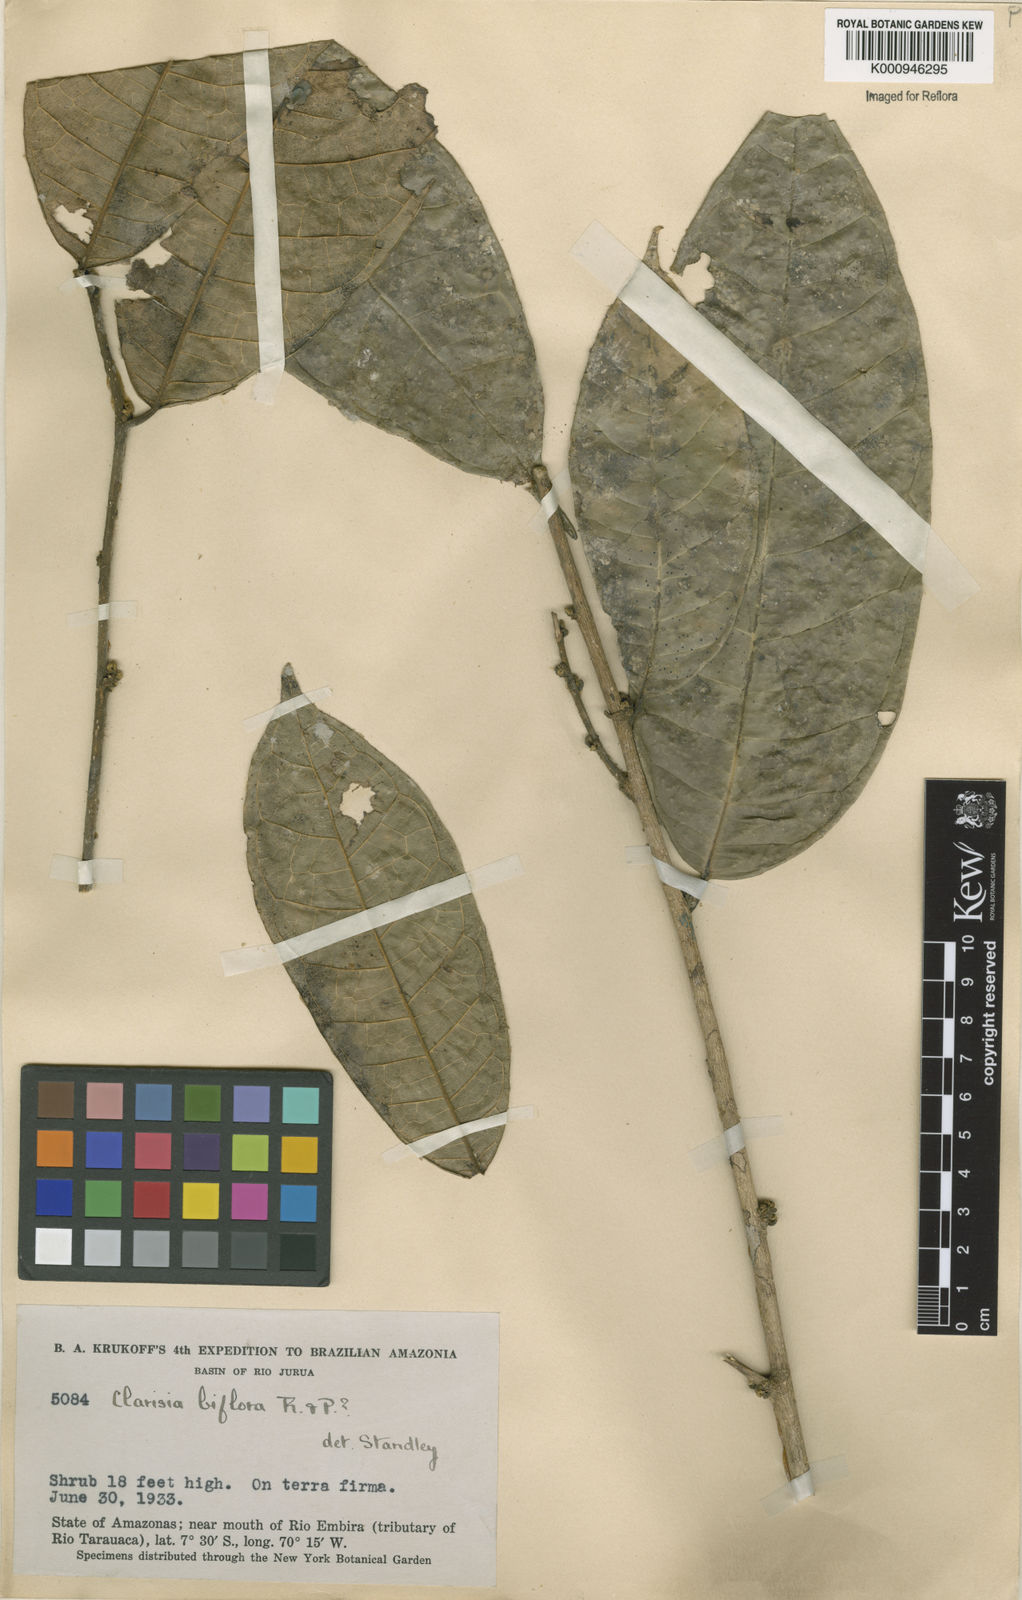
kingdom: Plantae
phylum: Tracheophyta
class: Magnoliopsida
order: Rosales
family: Moraceae
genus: Clarisia
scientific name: Clarisia biflora
